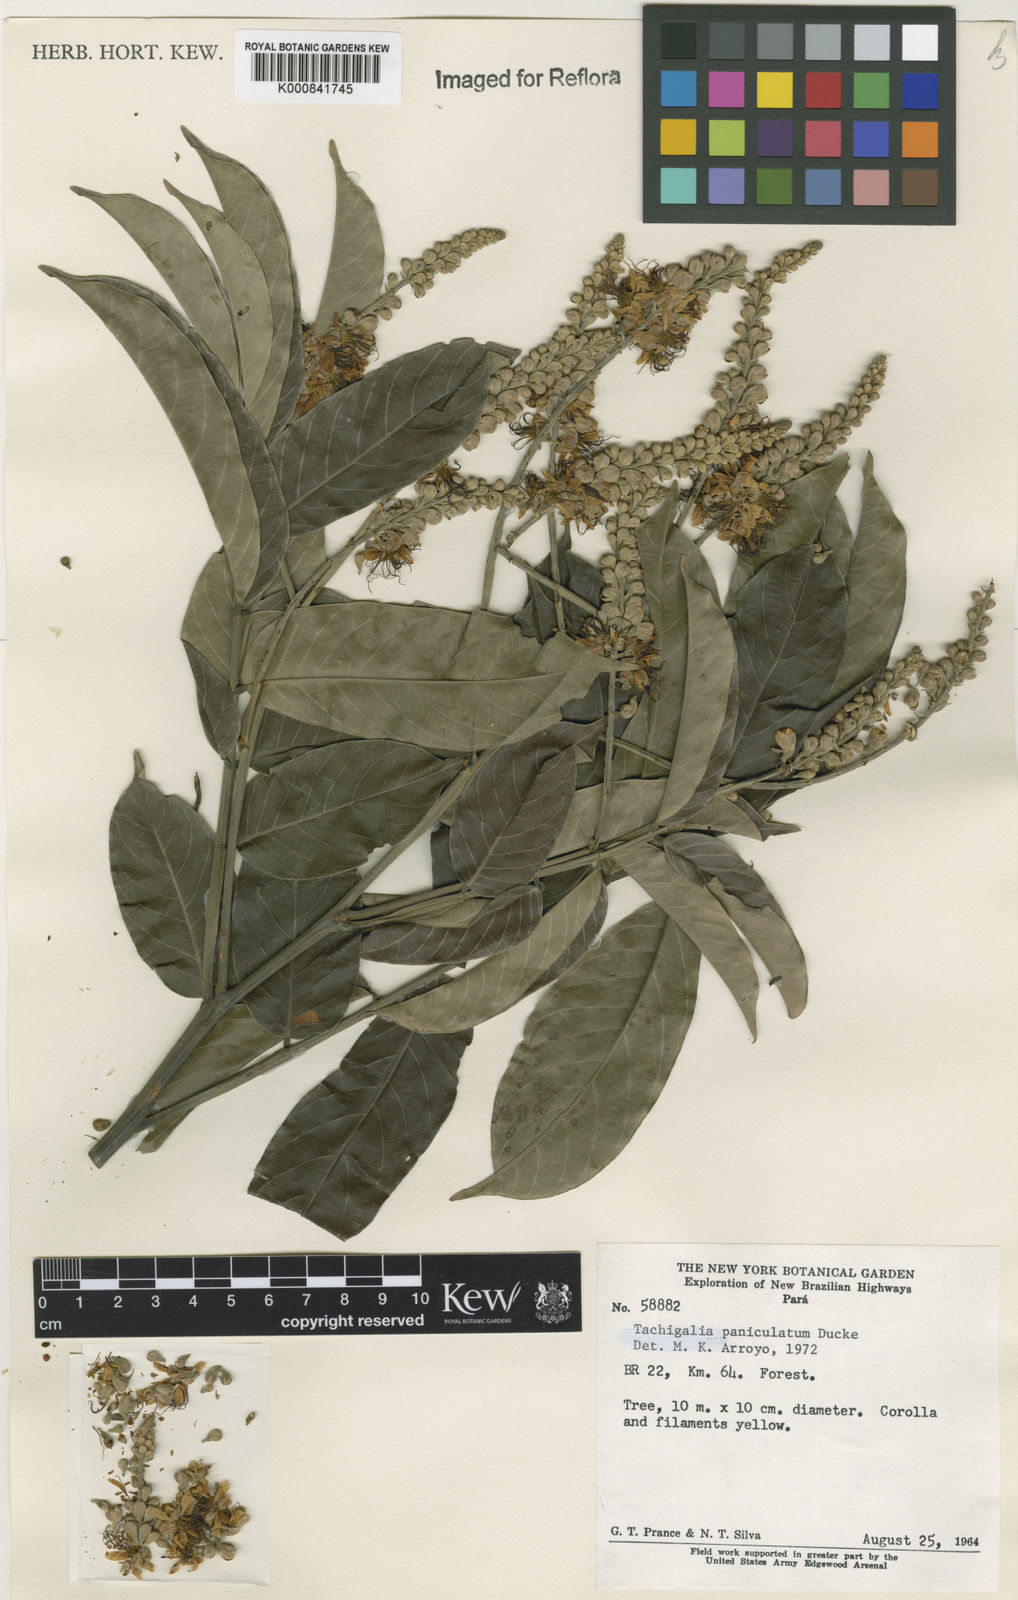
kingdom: Plantae
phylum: Tracheophyta
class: Magnoliopsida
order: Fabales
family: Fabaceae
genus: Tachigali
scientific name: Tachigali paniculata
